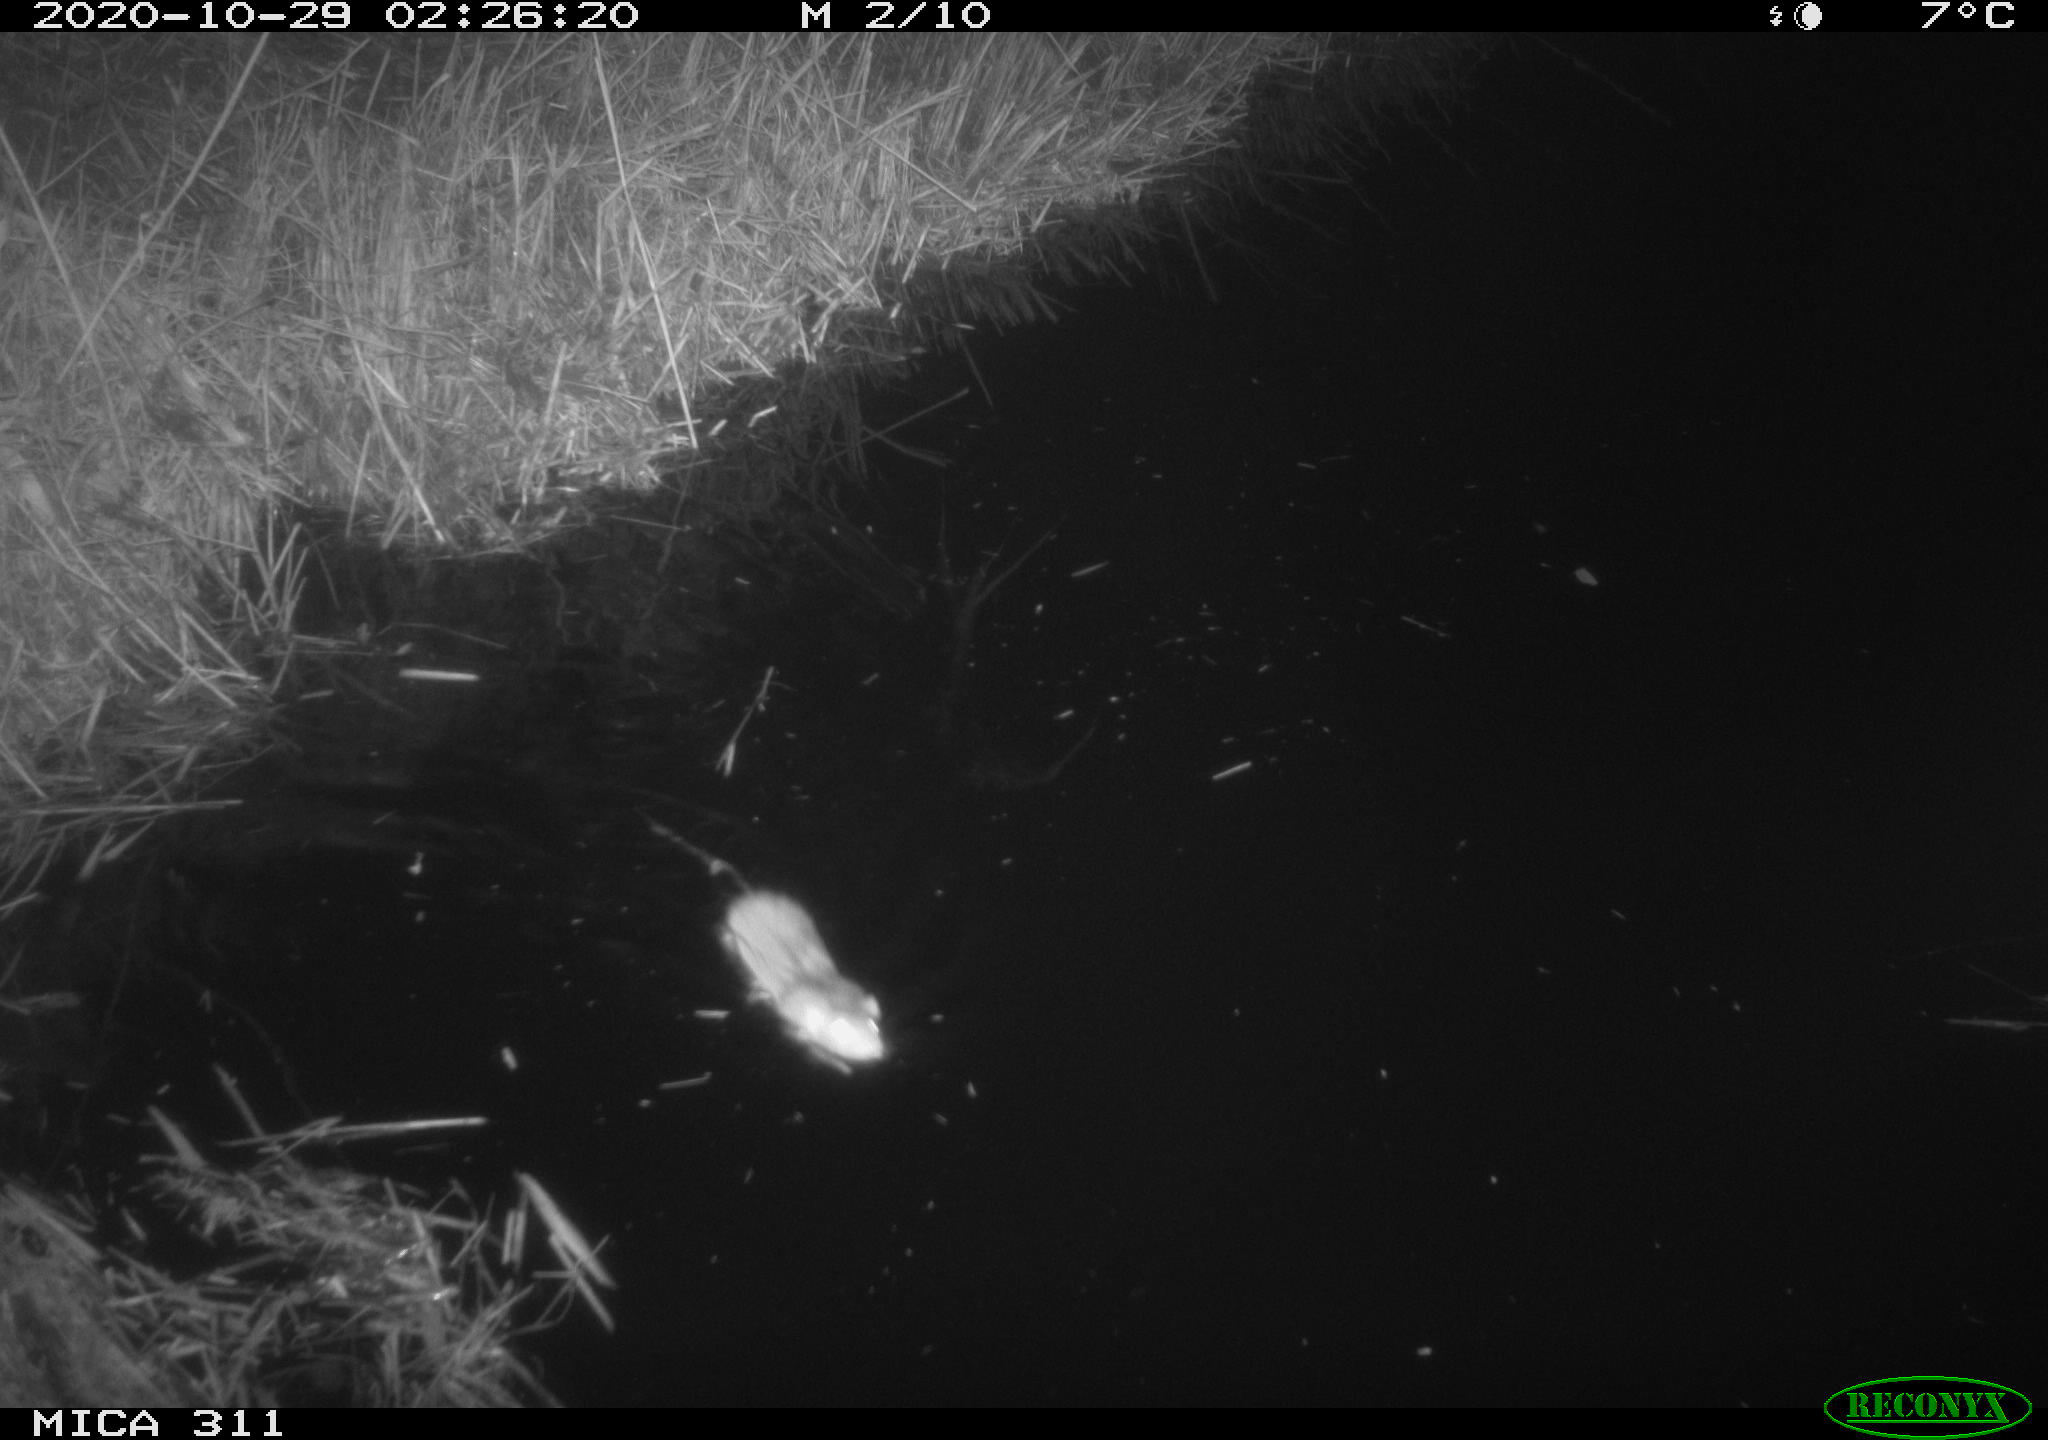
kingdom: Animalia
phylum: Chordata
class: Mammalia
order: Rodentia
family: Cricetidae
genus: Ondatra
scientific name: Ondatra zibethicus
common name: Muskrat
